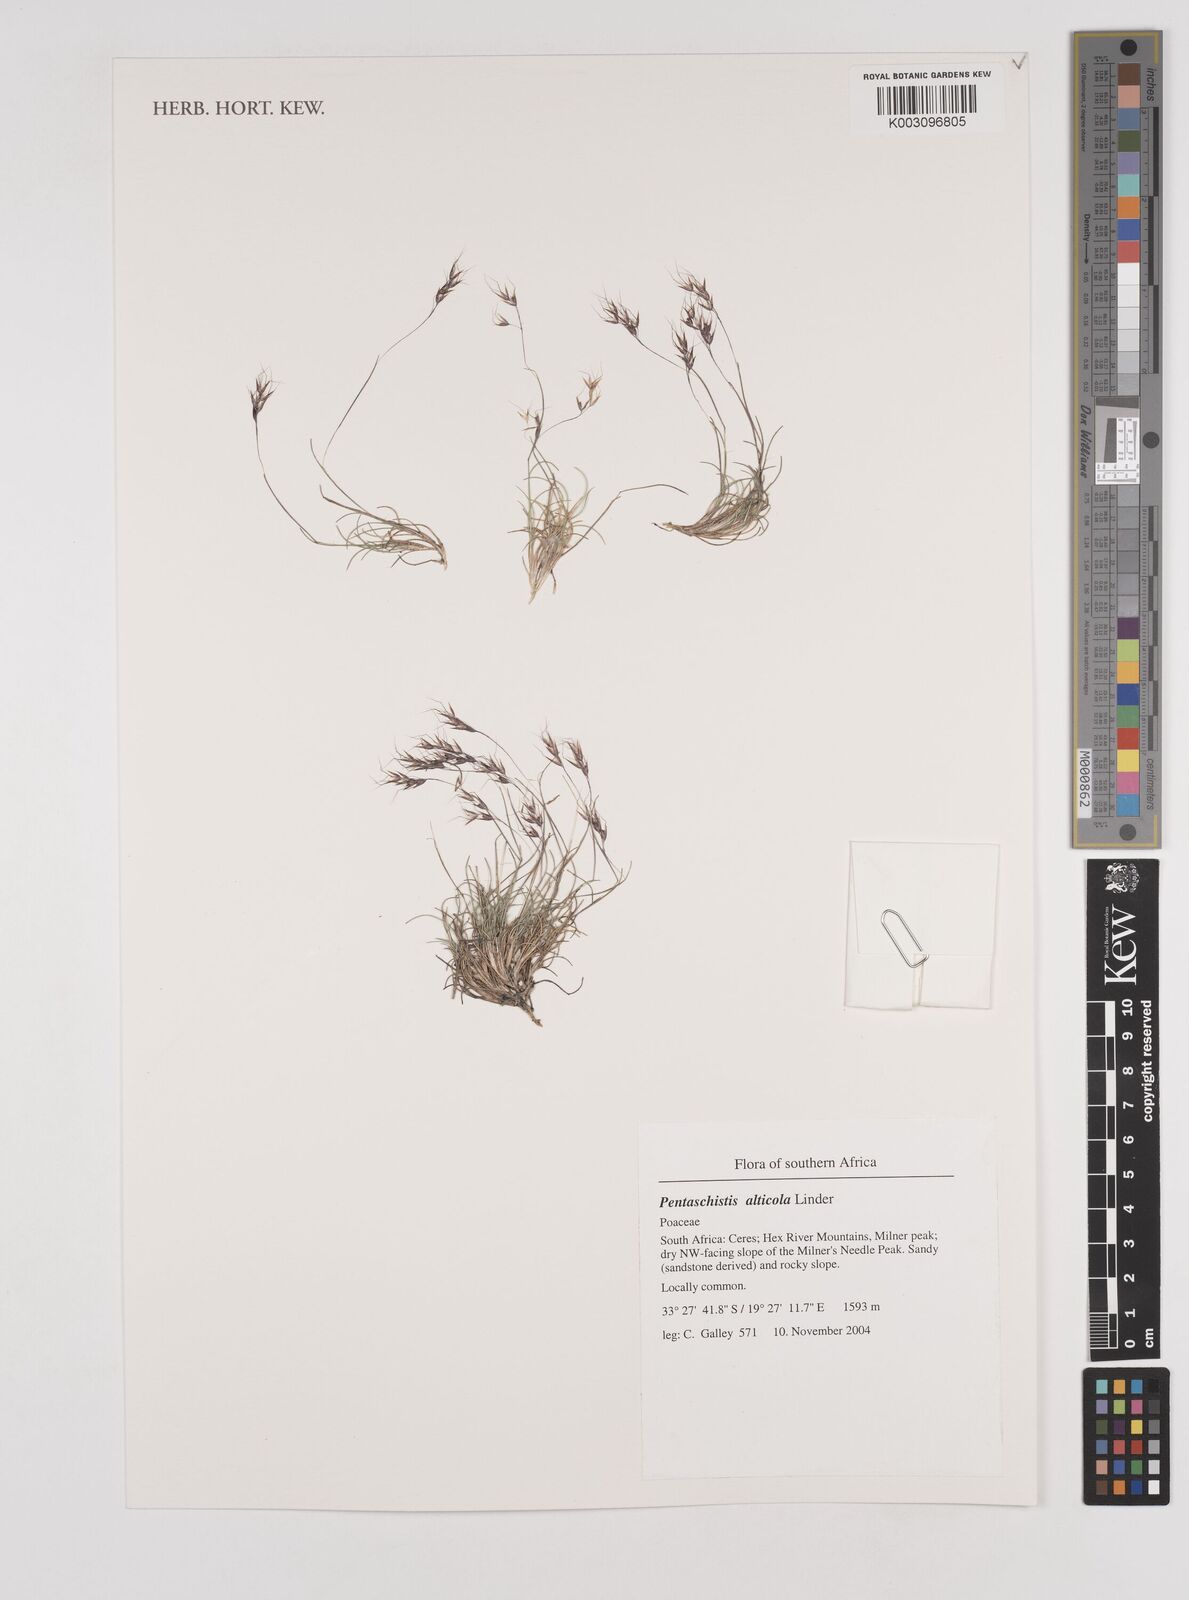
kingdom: Plantae
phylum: Tracheophyta
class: Liliopsida
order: Poales
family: Poaceae
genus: Pentameris
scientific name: Pentameris alticola
